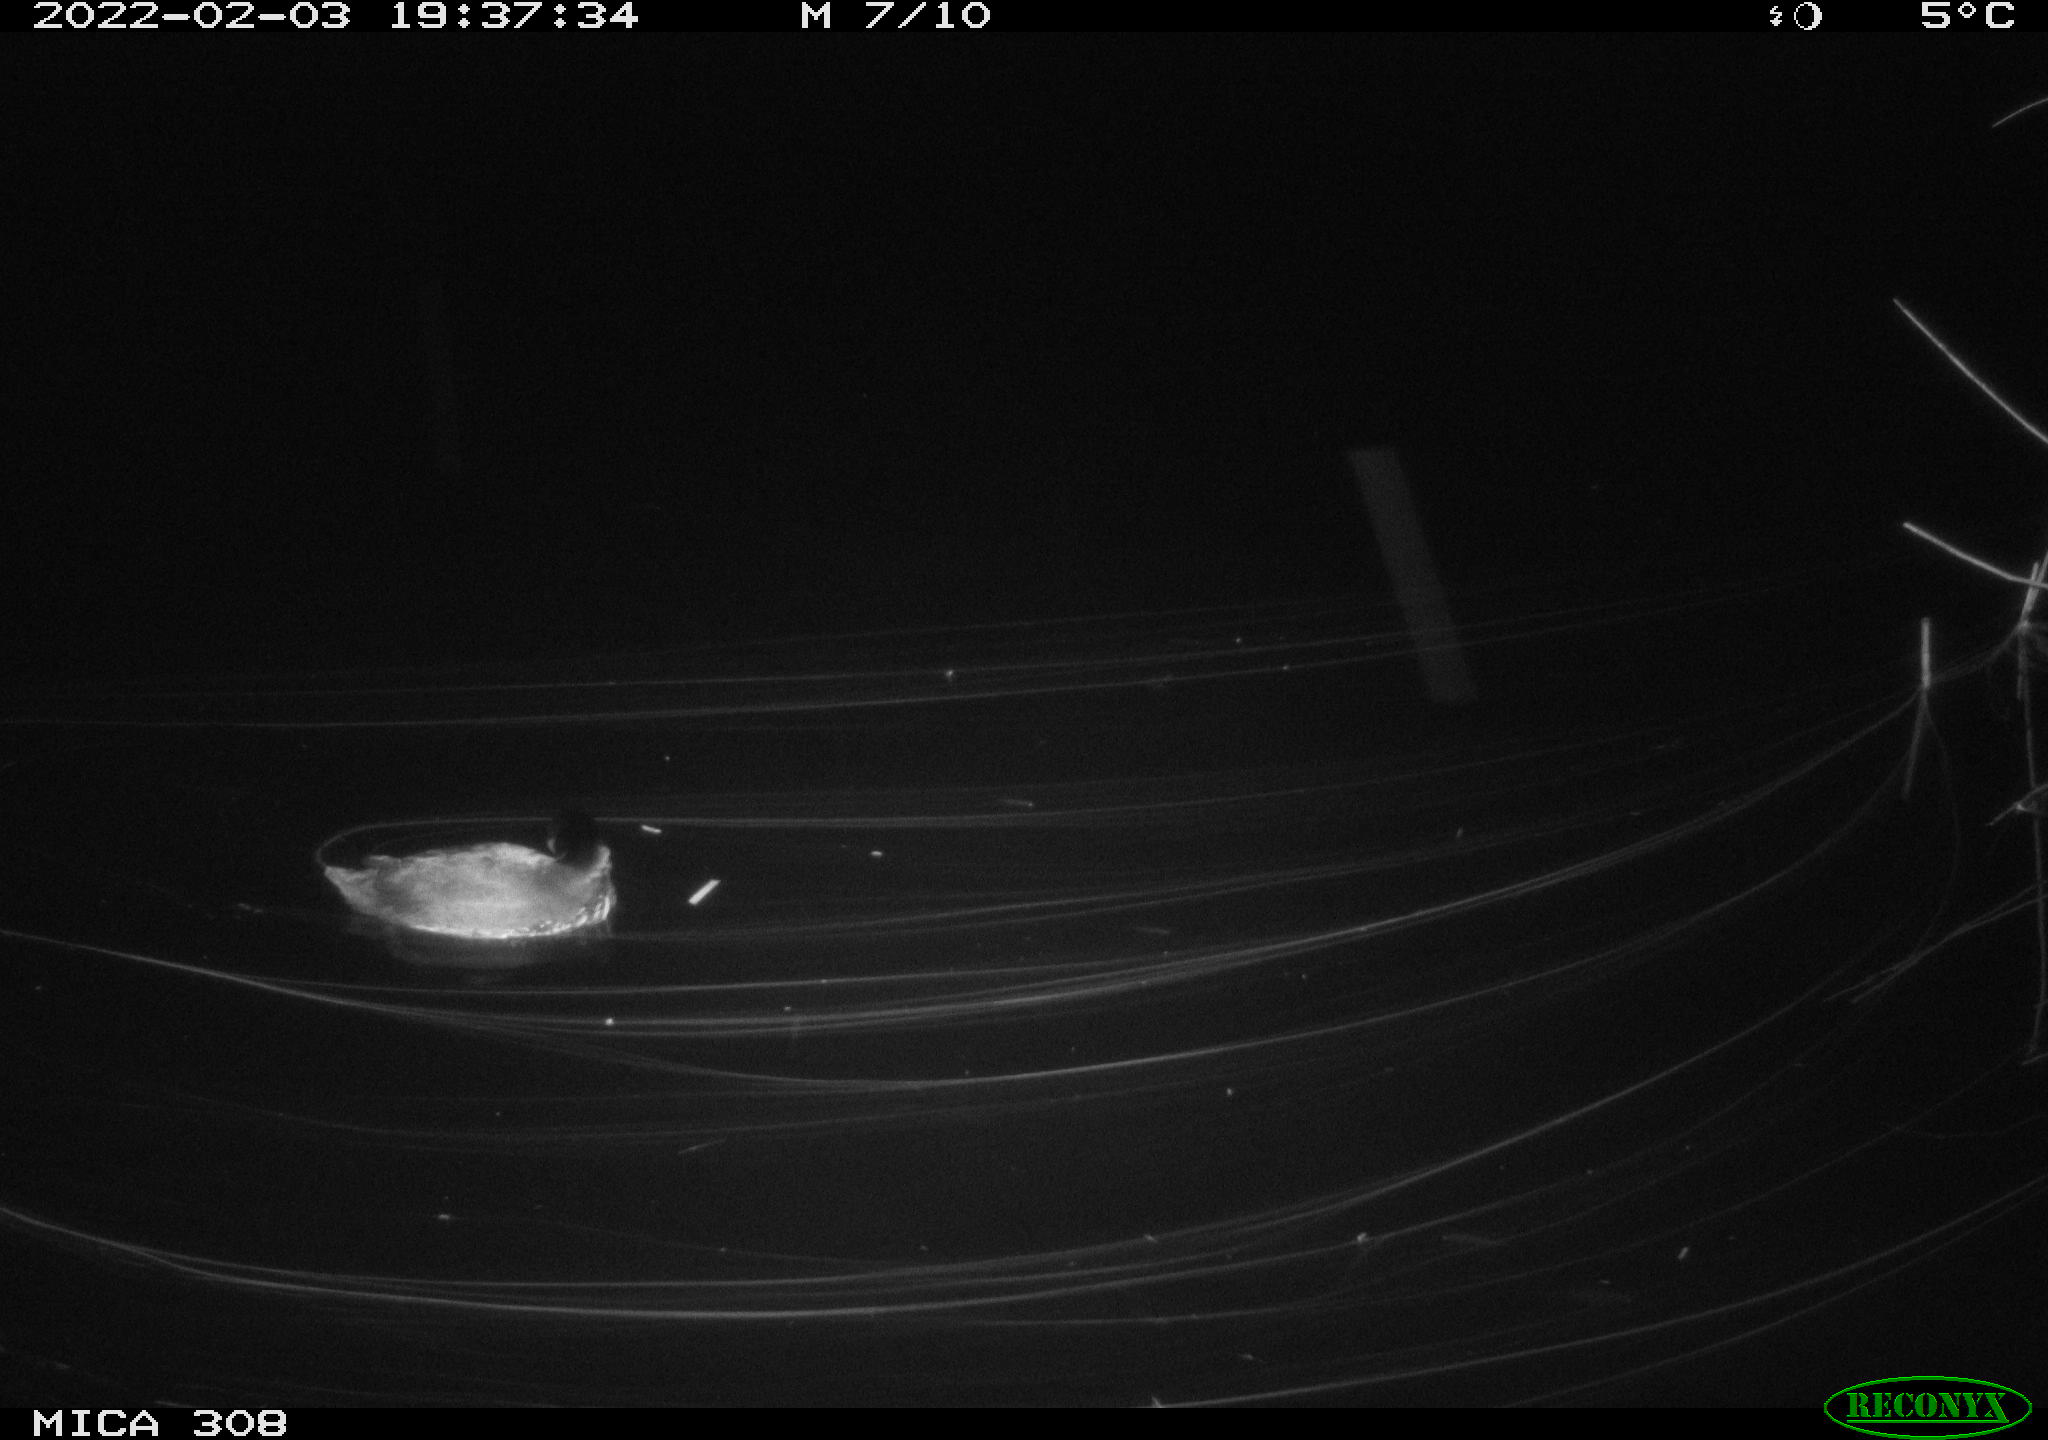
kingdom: Animalia
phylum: Chordata
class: Aves
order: Gruiformes
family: Rallidae
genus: Fulica
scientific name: Fulica atra
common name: Eurasian coot
